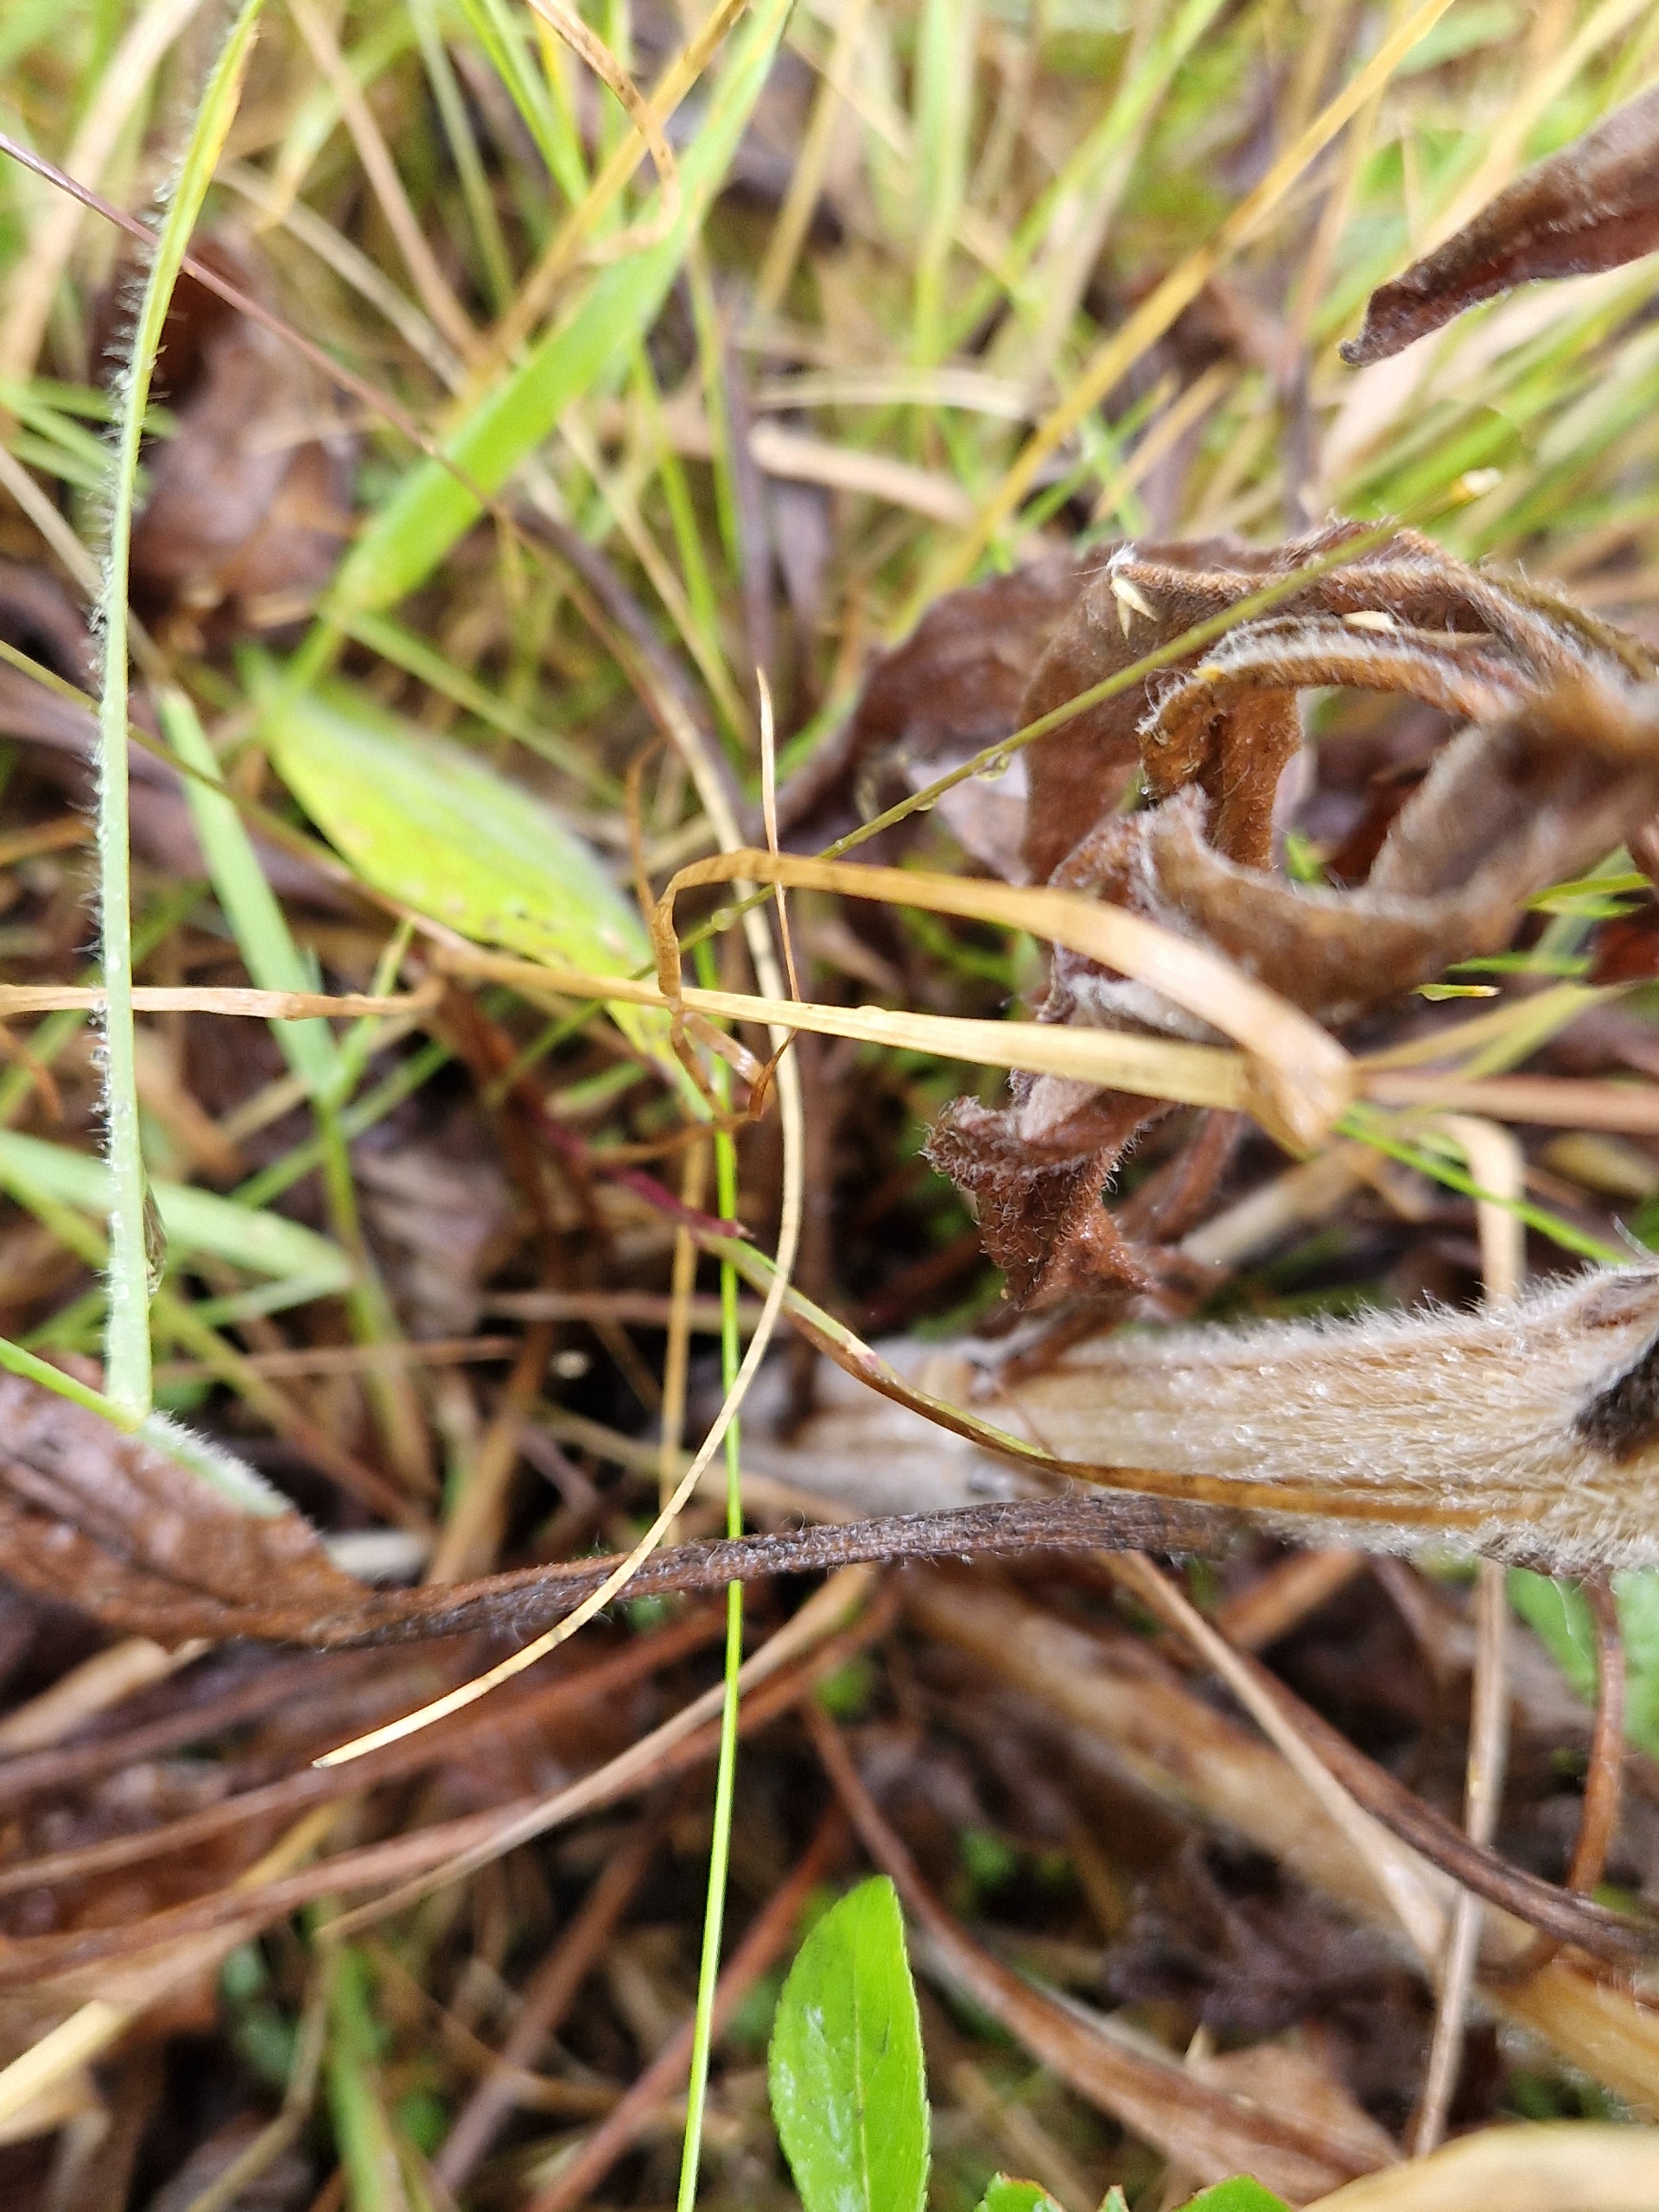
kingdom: Plantae
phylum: Tracheophyta
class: Magnoliopsida
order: Boraginales
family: Boraginaceae
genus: Cynoglossum
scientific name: Cynoglossum officinale
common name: Hundetunge
